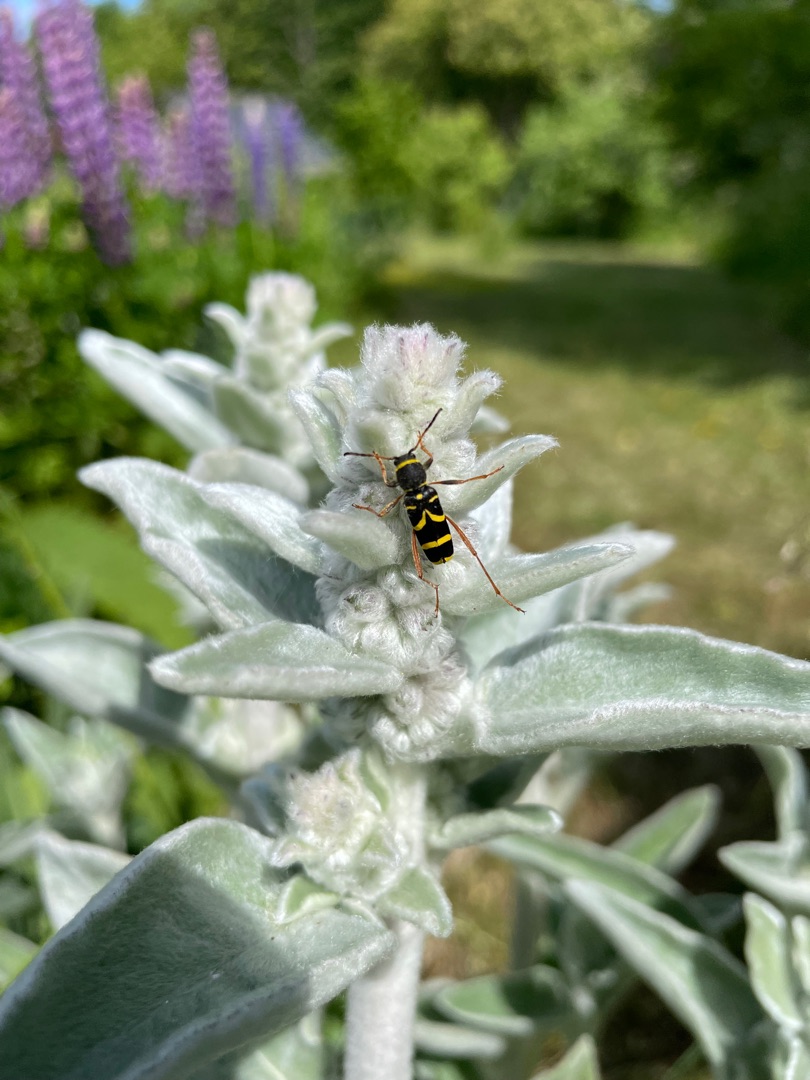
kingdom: Animalia
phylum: Arthropoda
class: Insecta
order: Coleoptera
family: Cerambycidae
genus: Clytus
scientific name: Clytus arietis
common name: Lille hvepsebuk
